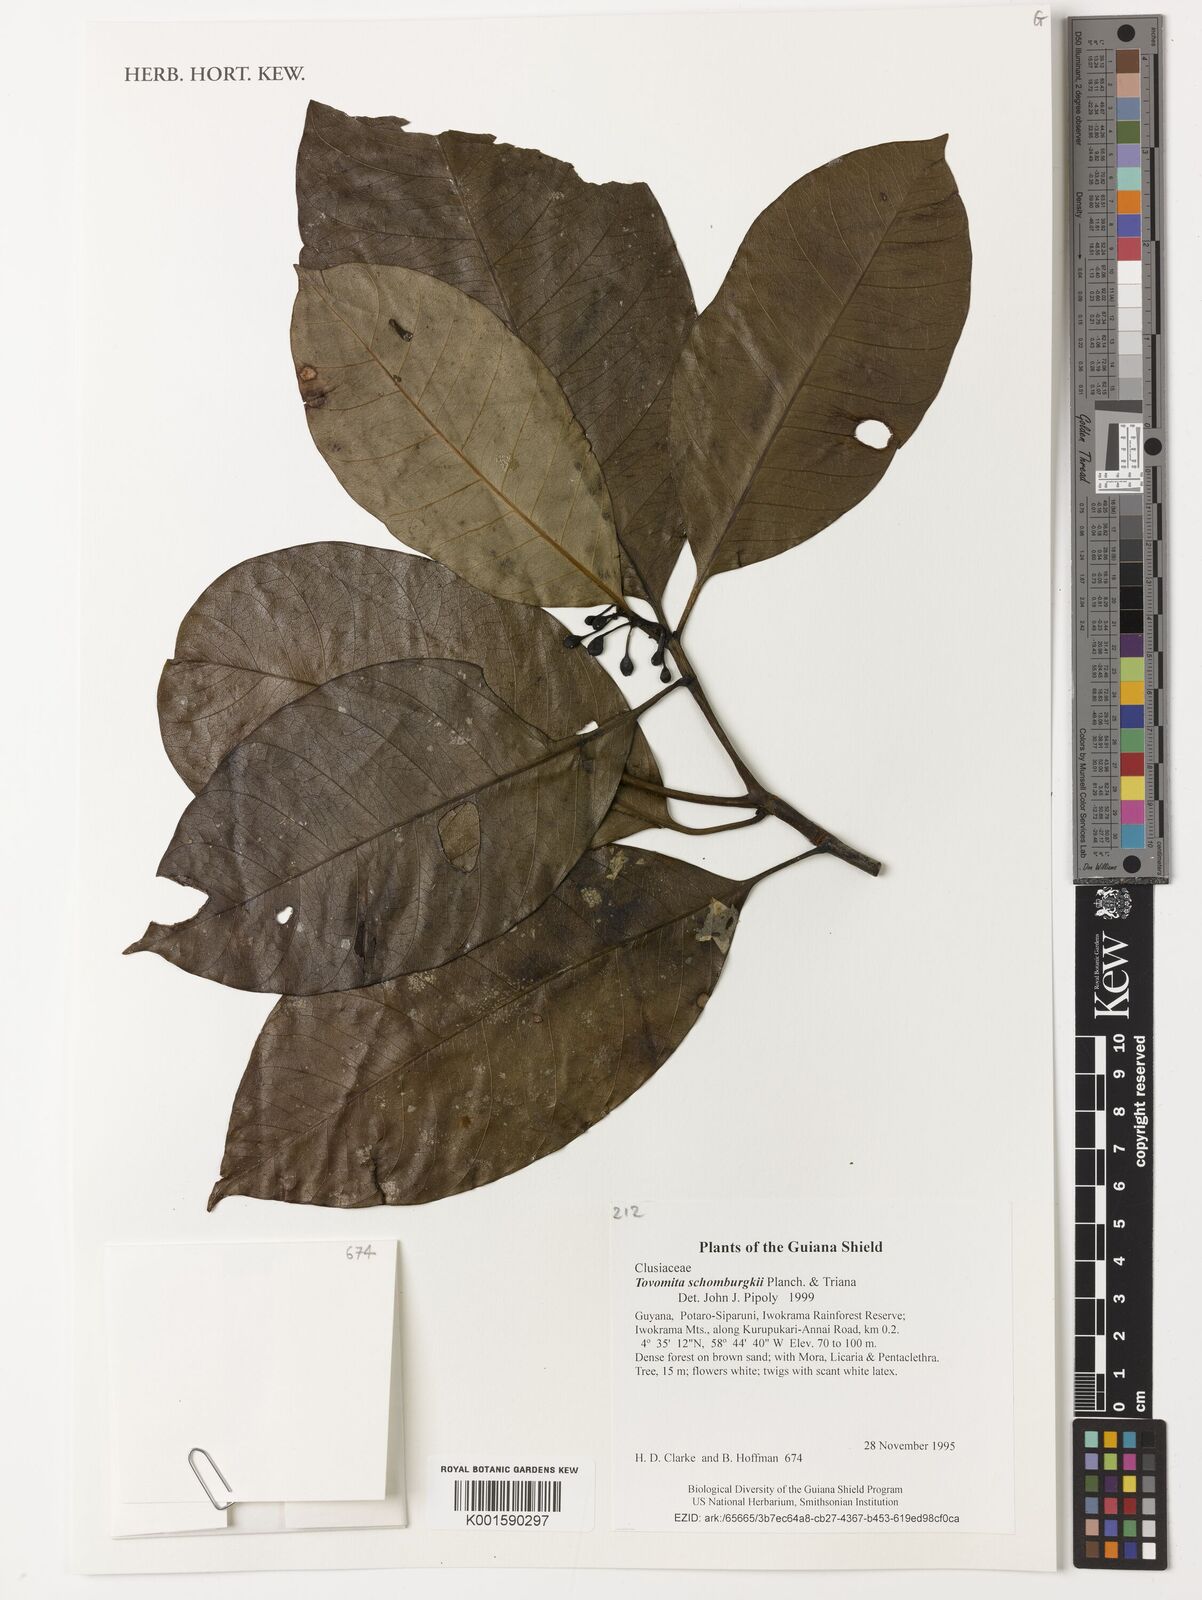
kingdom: Plantae
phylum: Tracheophyta
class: Magnoliopsida
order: Malpighiales
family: Clusiaceae
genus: Tovomita
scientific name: Tovomita schomburgkii
